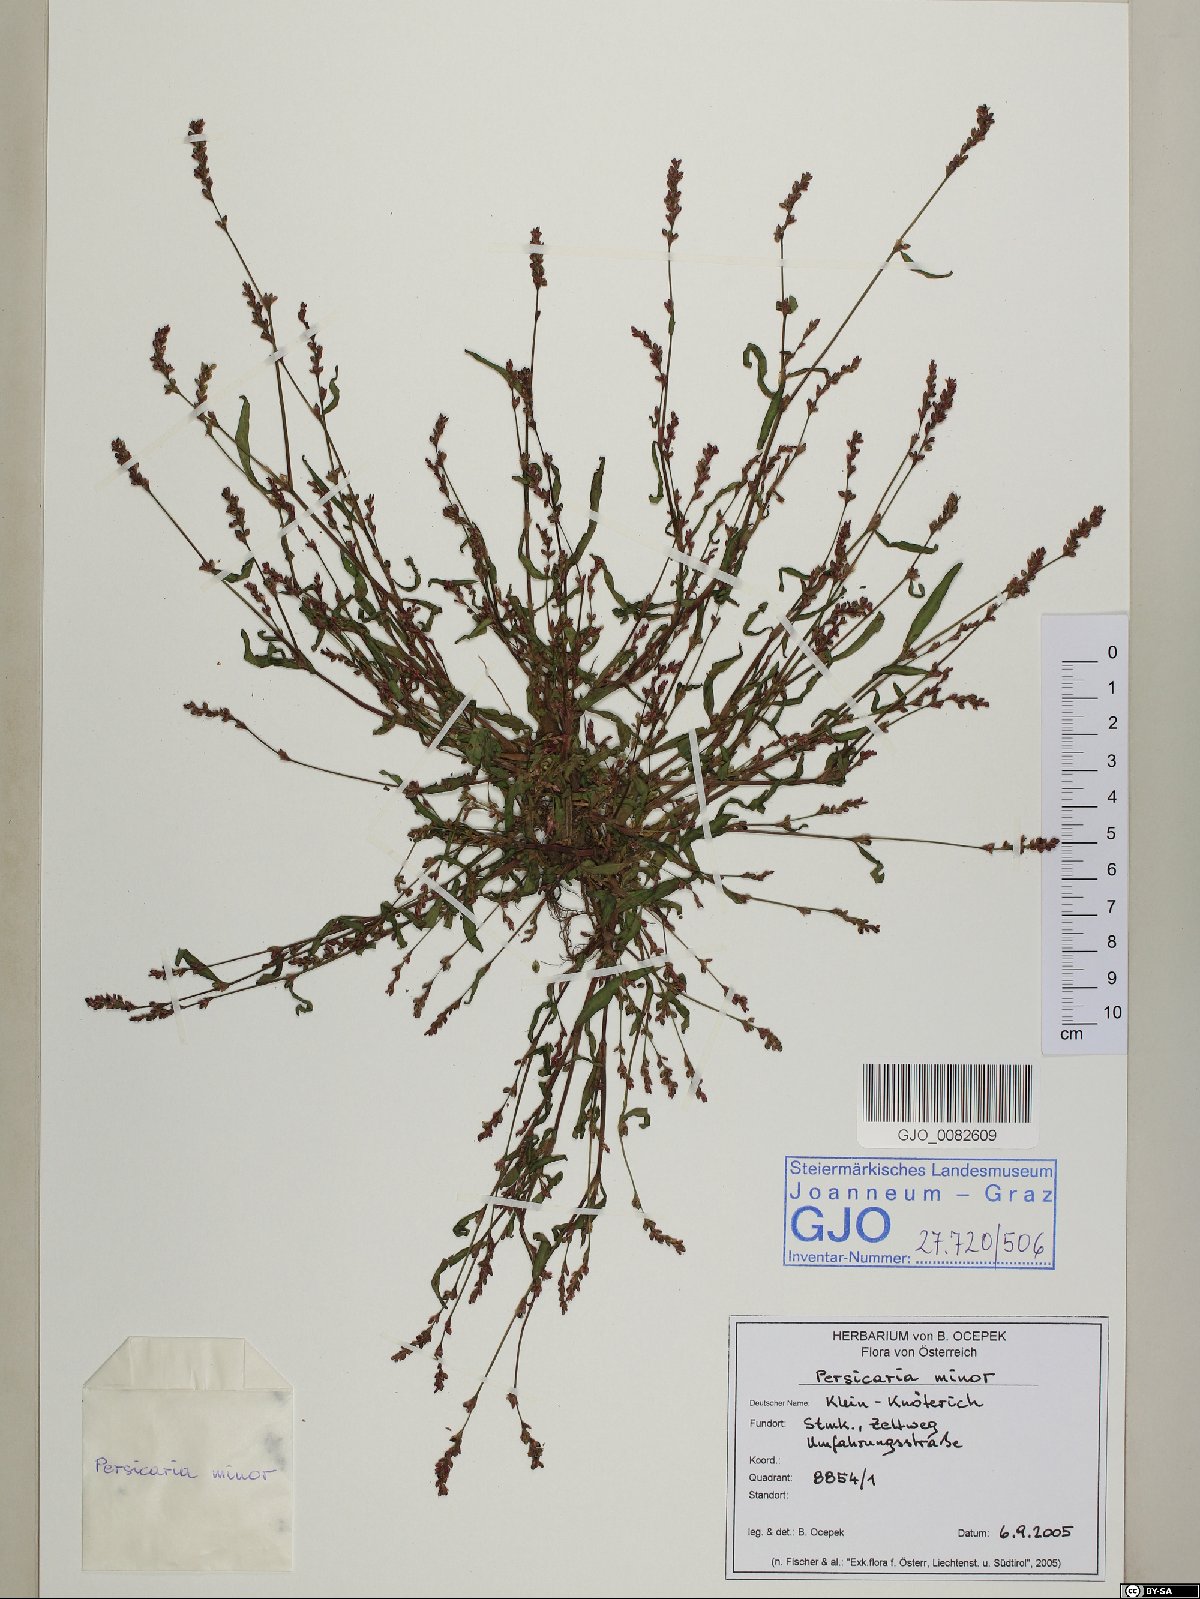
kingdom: Plantae
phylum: Tracheophyta
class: Magnoliopsida
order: Caryophyllales
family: Polygonaceae
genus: Persicaria
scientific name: Persicaria minor
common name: Small water-pepper
